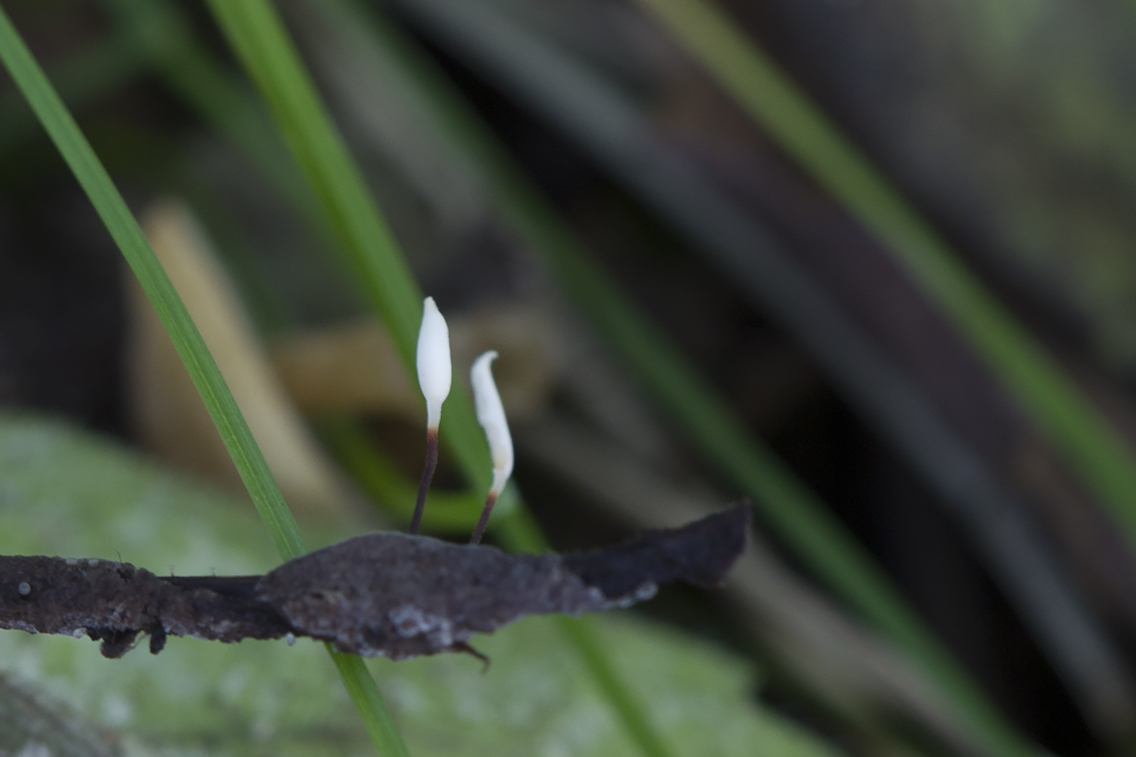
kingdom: Fungi
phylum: Basidiomycota
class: Agaricomycetes
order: Agaricales
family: Typhulaceae
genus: Typhula
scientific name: Typhula erythropus
